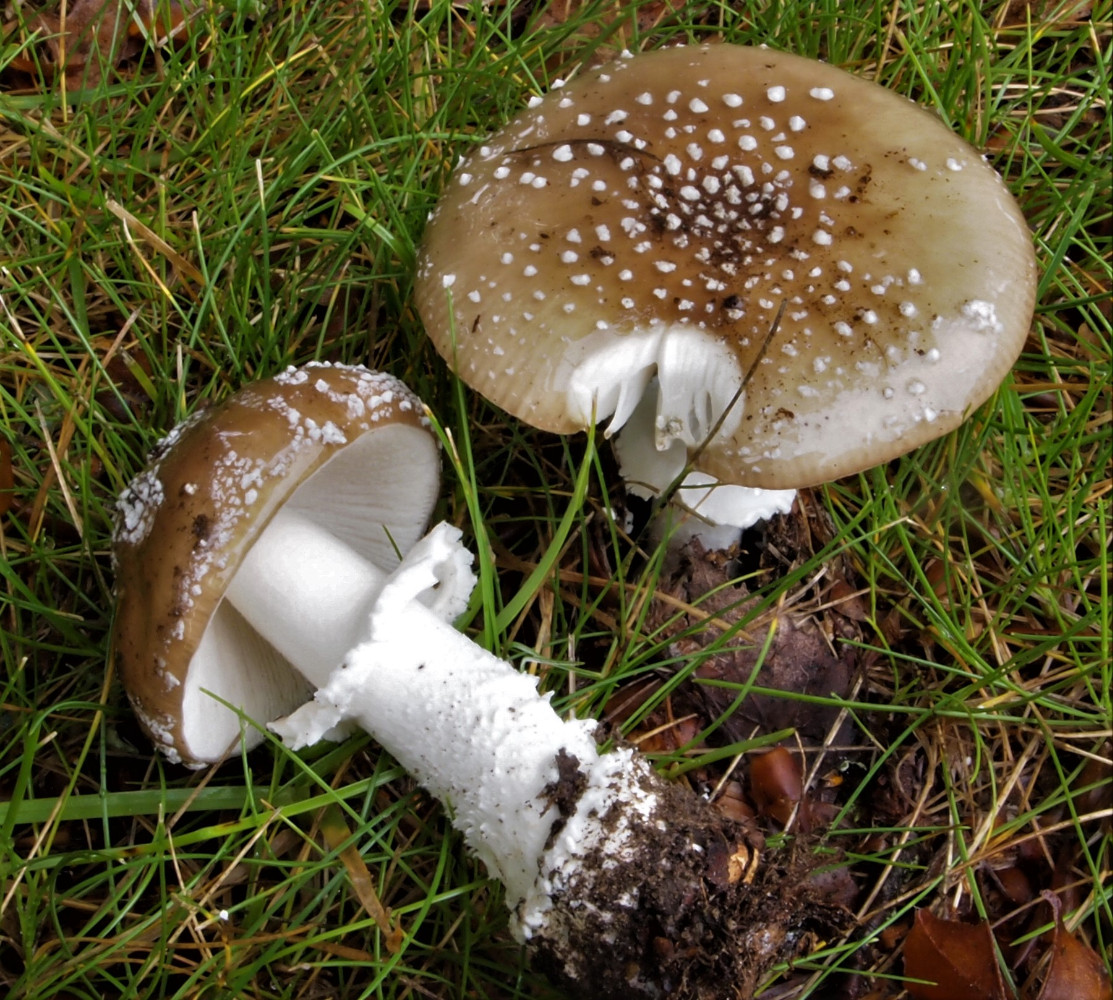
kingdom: Fungi
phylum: Basidiomycota
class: Agaricomycetes
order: Agaricales
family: Amanitaceae
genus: Amanita
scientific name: Amanita pantherina
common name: panter-fluesvamp
